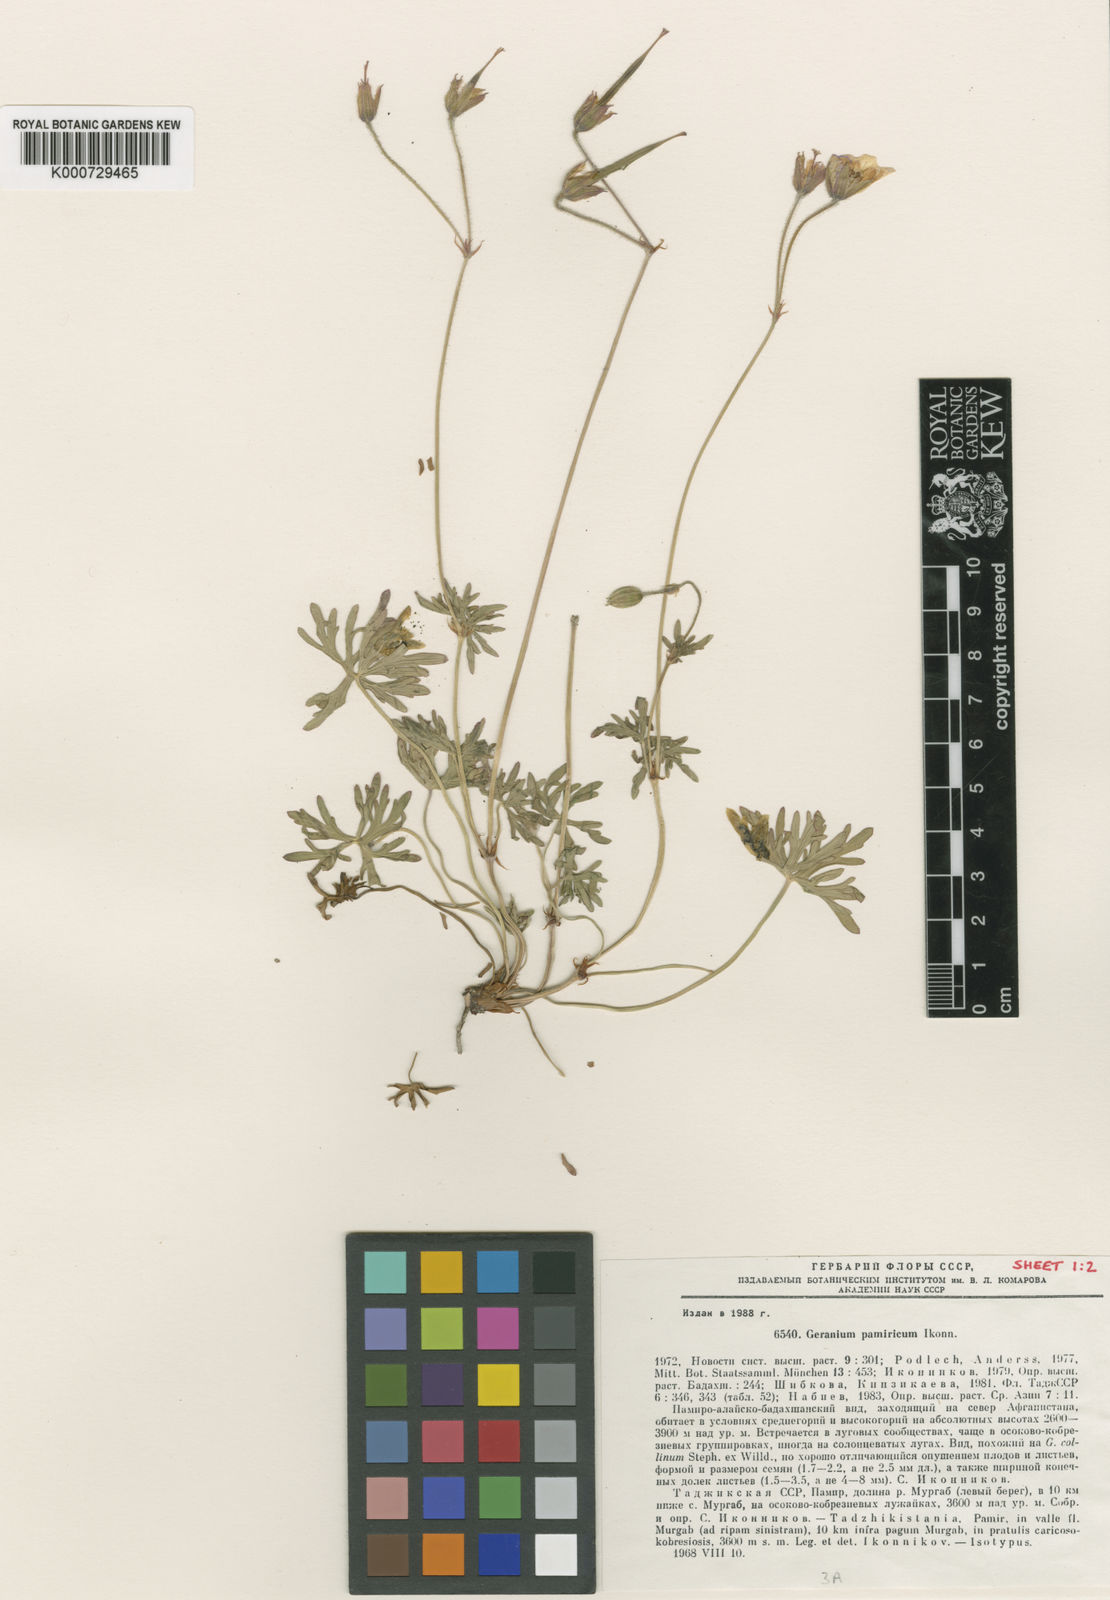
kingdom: Plantae
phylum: Tracheophyta
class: Magnoliopsida
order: Geraniales
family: Geraniaceae
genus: Geranium
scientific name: Geranium collinum
